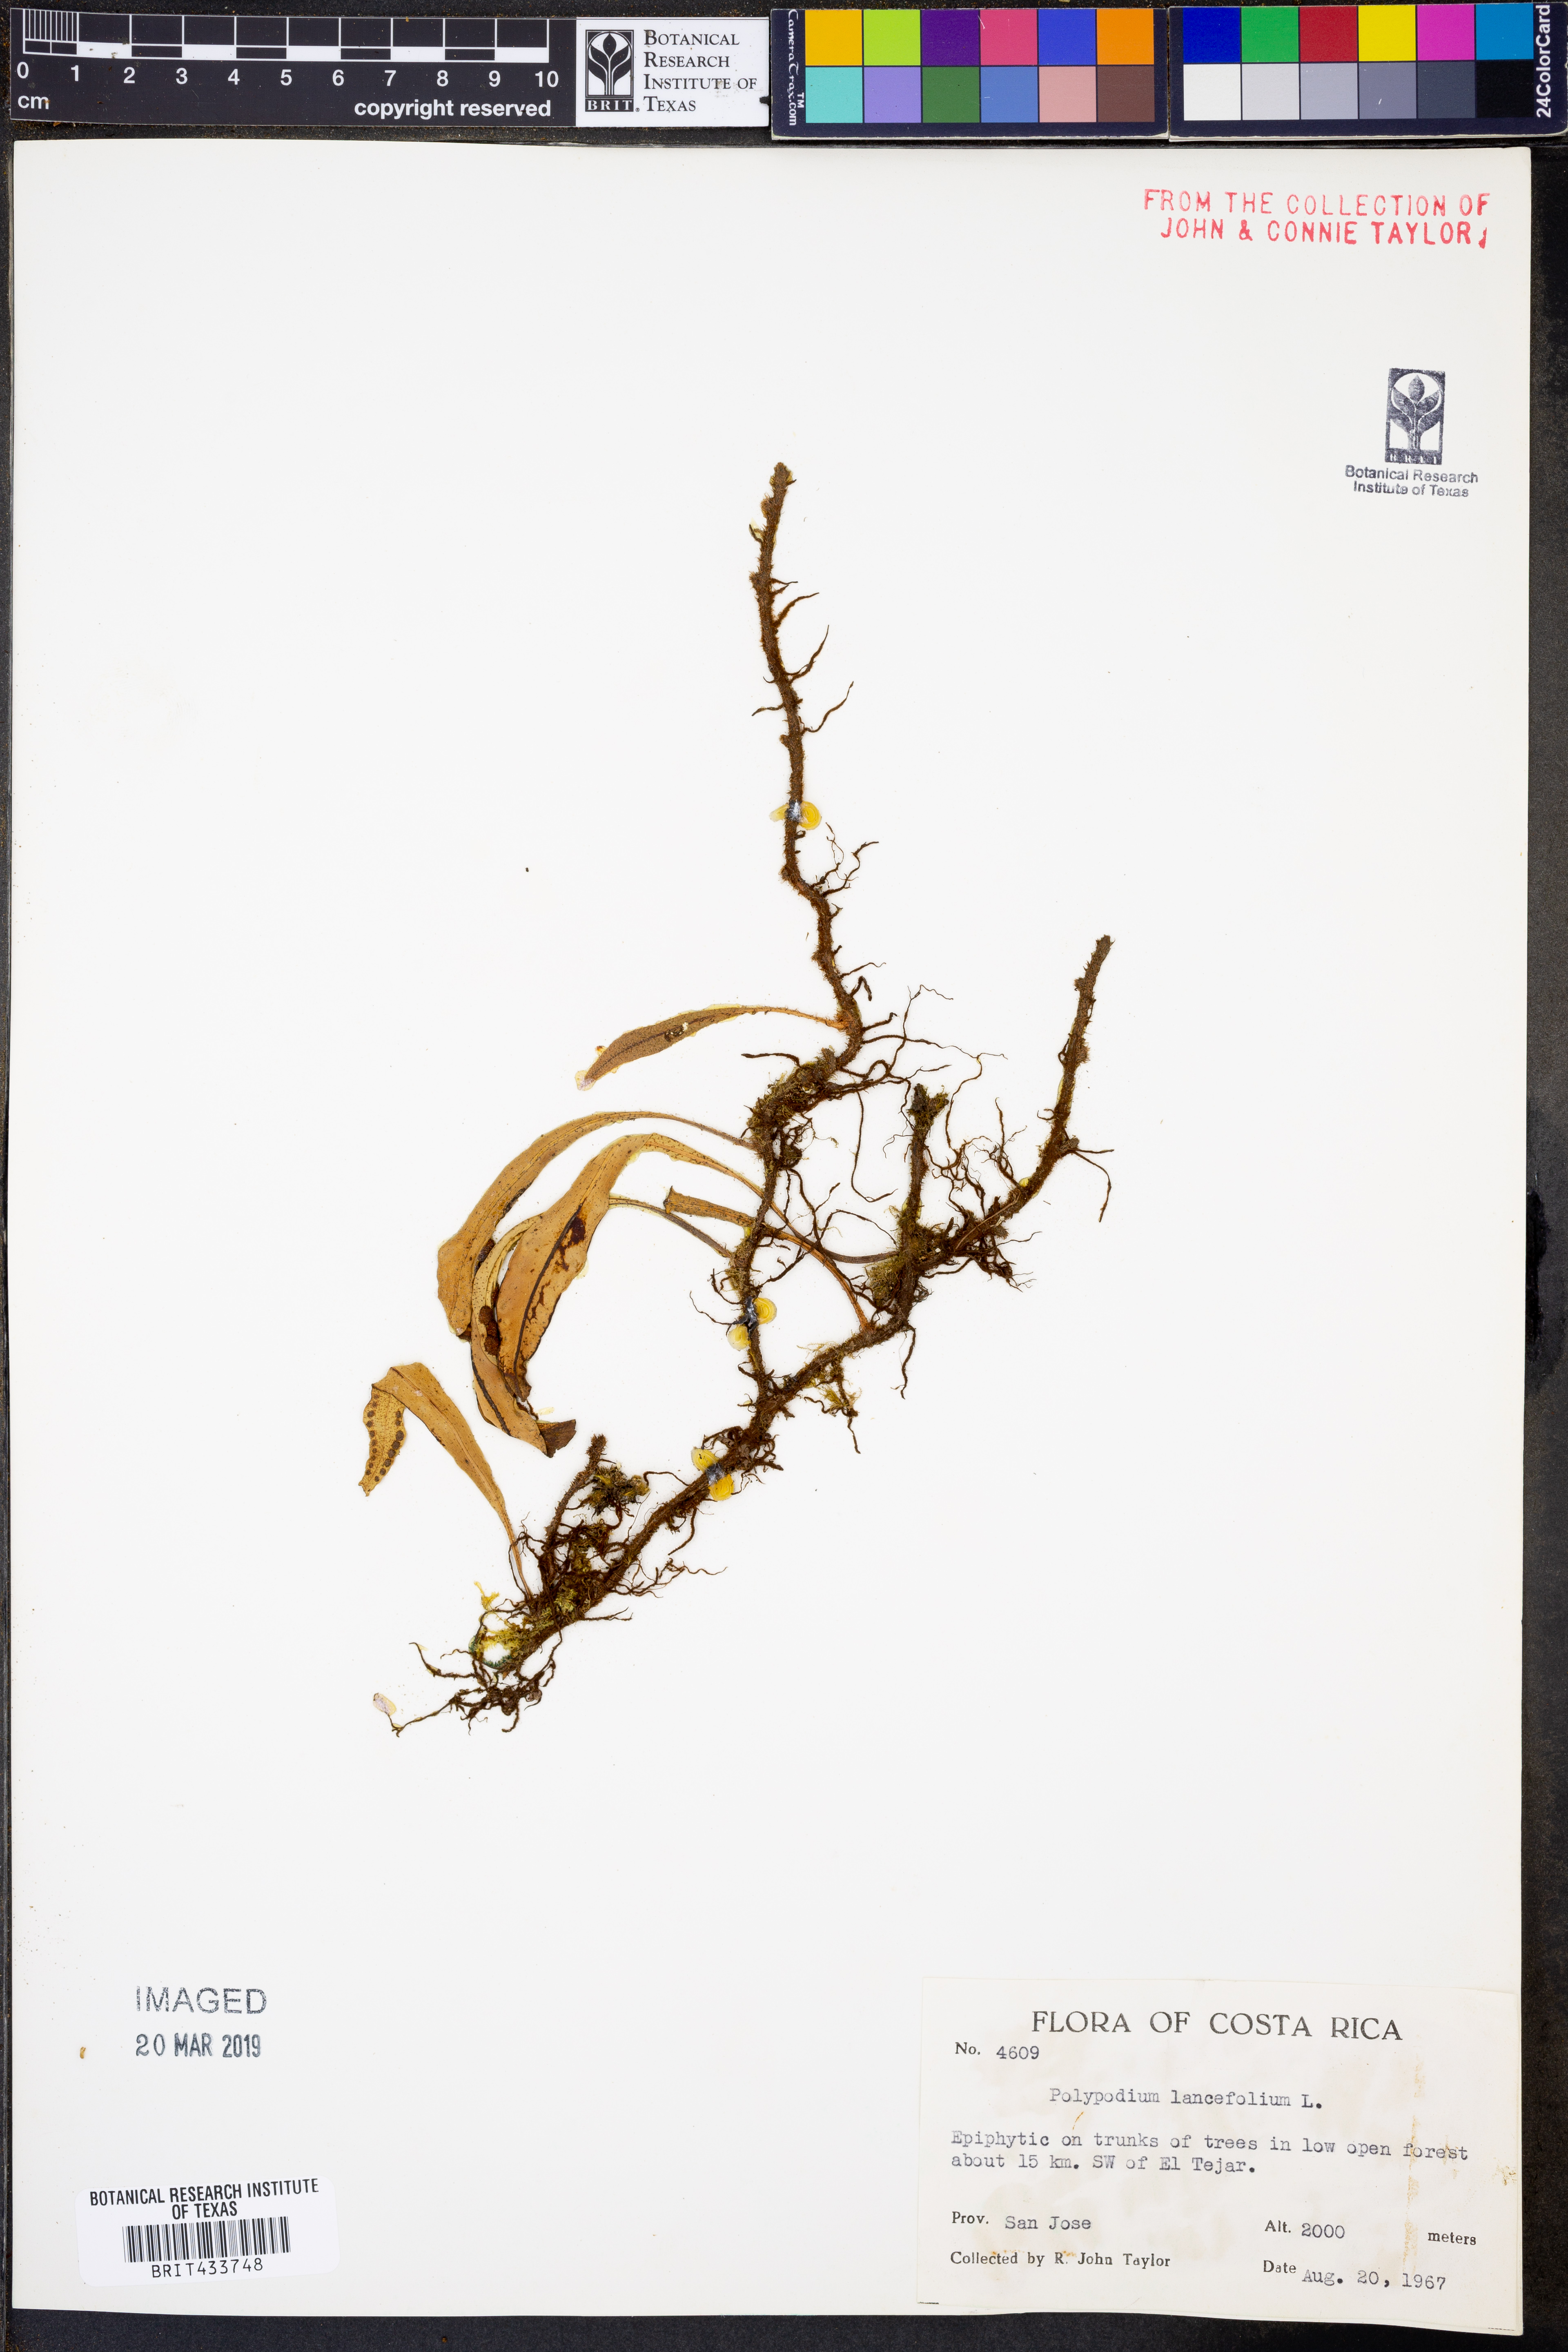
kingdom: Plantae
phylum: Tracheophyta
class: Polypodiopsida
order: Polypodiales
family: Polypodiaceae
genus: Pleopeltis
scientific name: Pleopeltis macrocarpa
